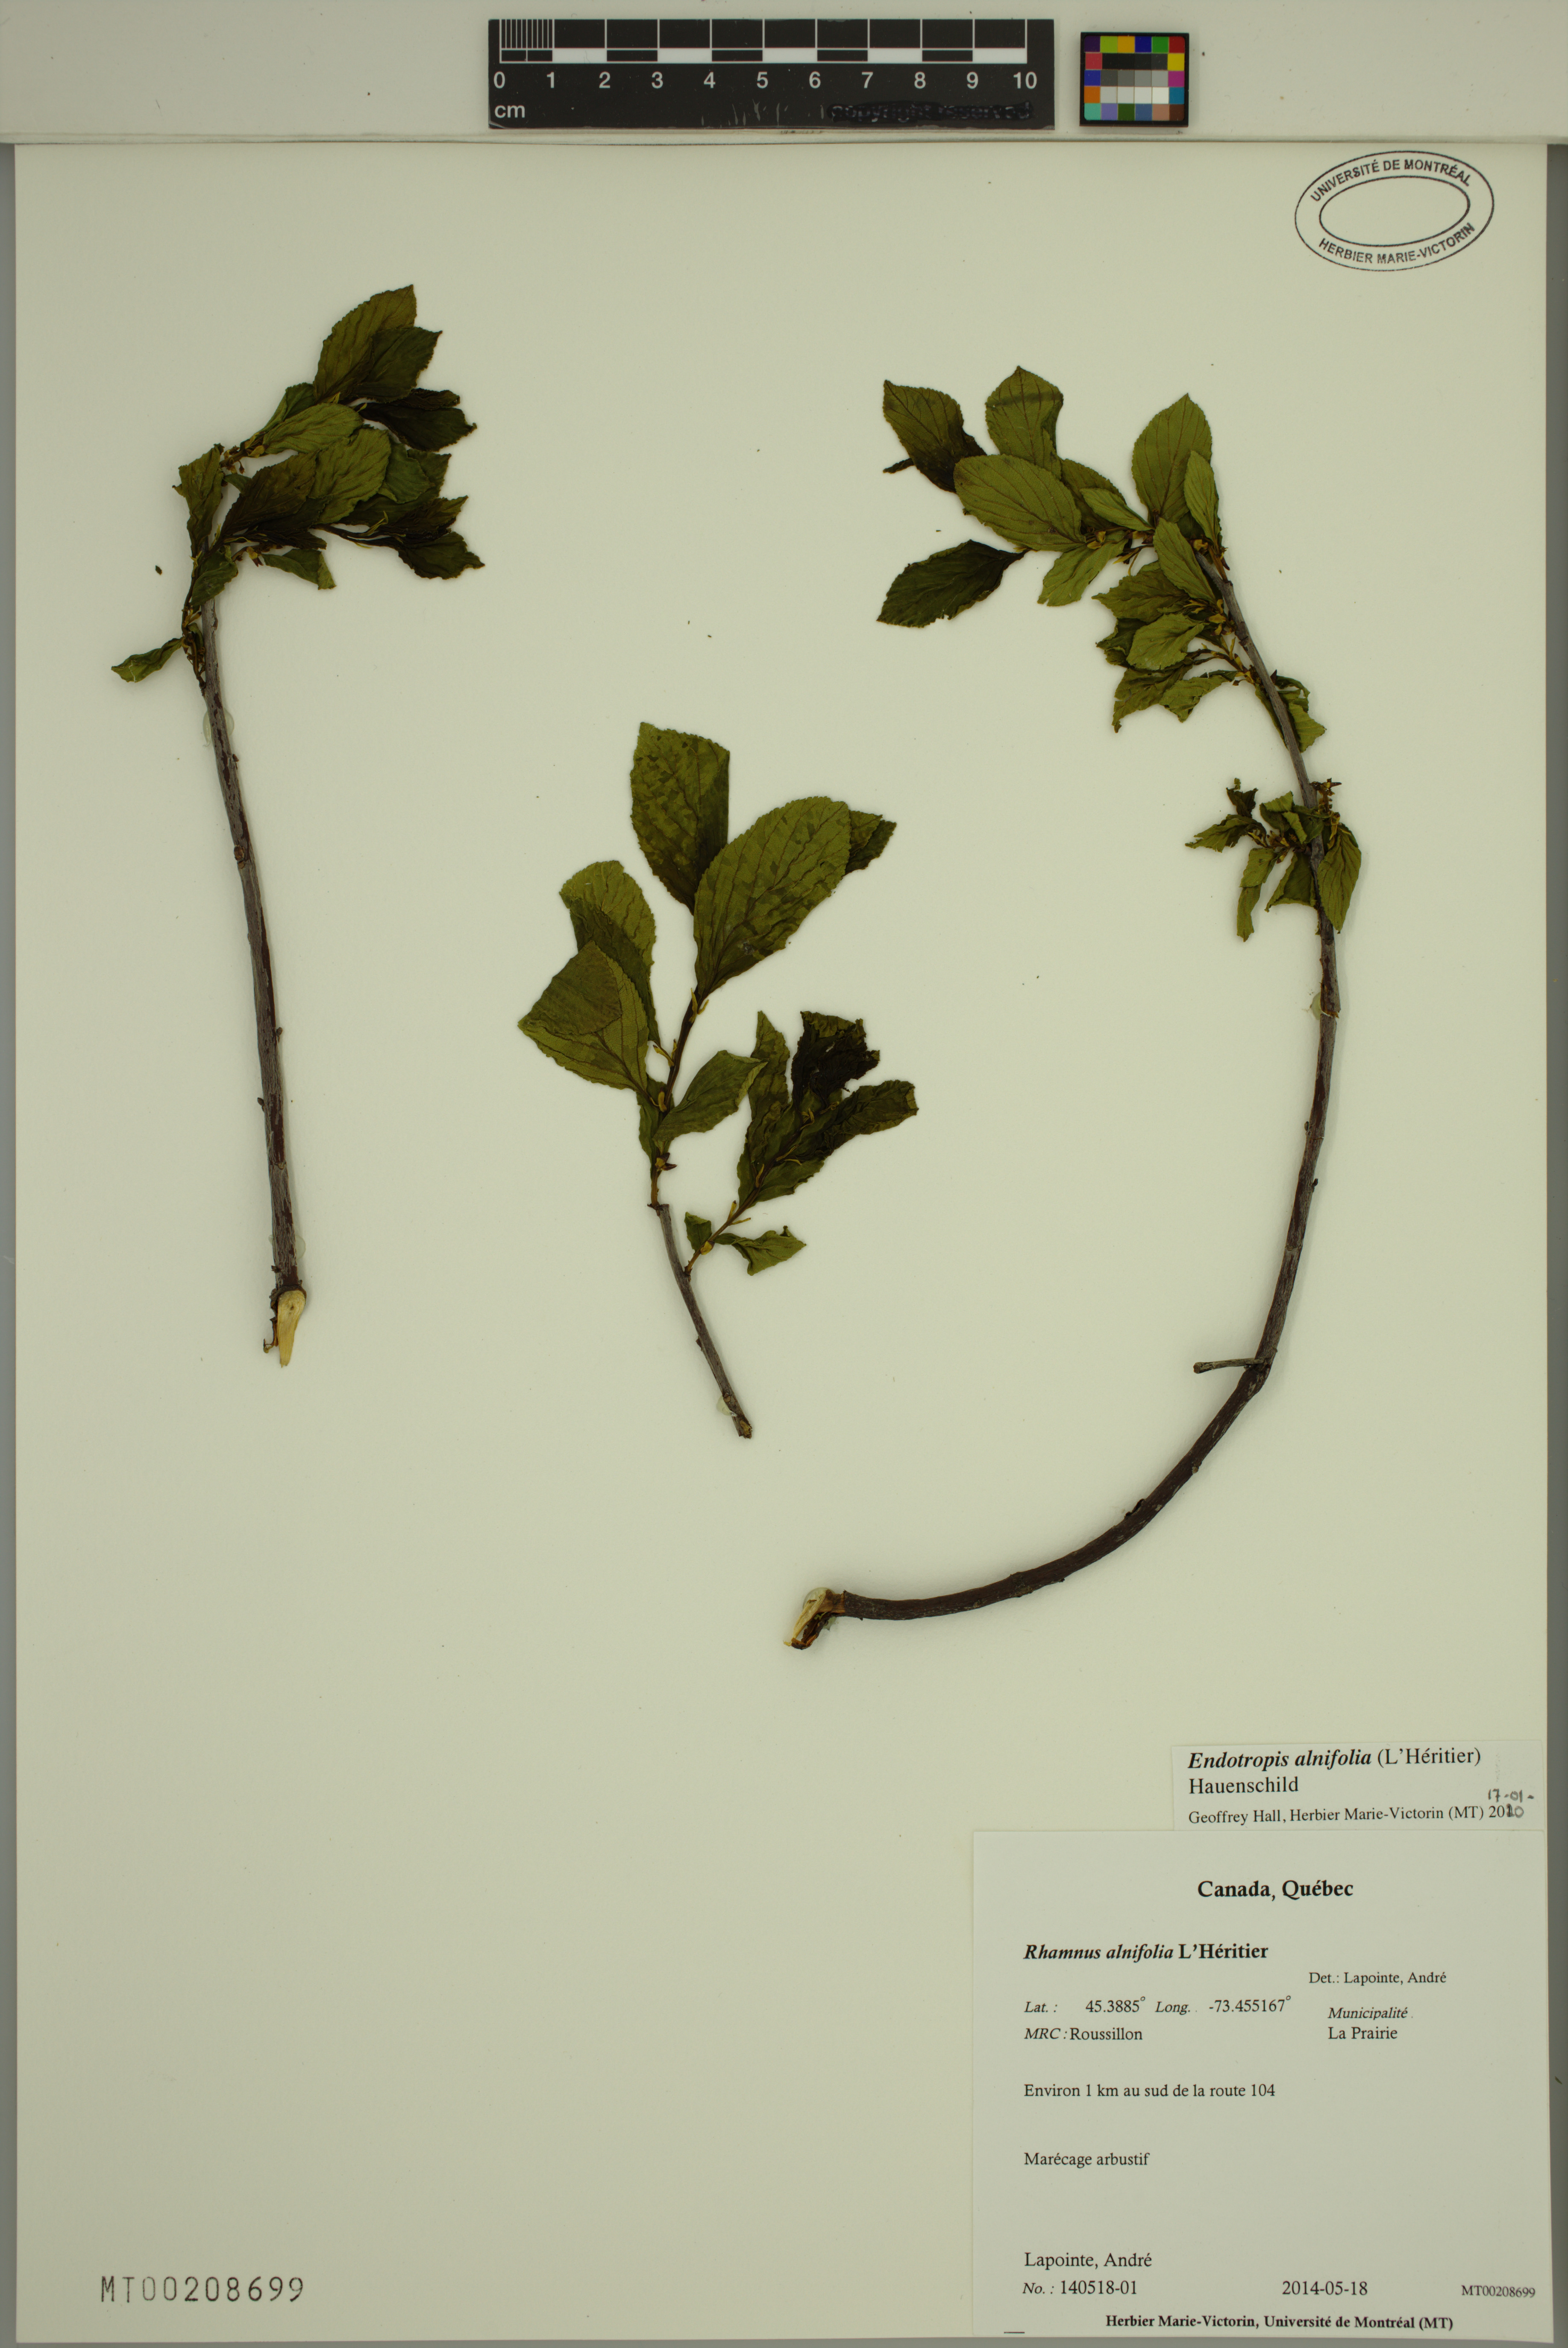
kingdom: Plantae
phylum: Tracheophyta
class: Magnoliopsida
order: Rosales
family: Rhamnaceae
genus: Endotropis
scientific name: Endotropis alnifolia
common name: American alder-buckthorn
